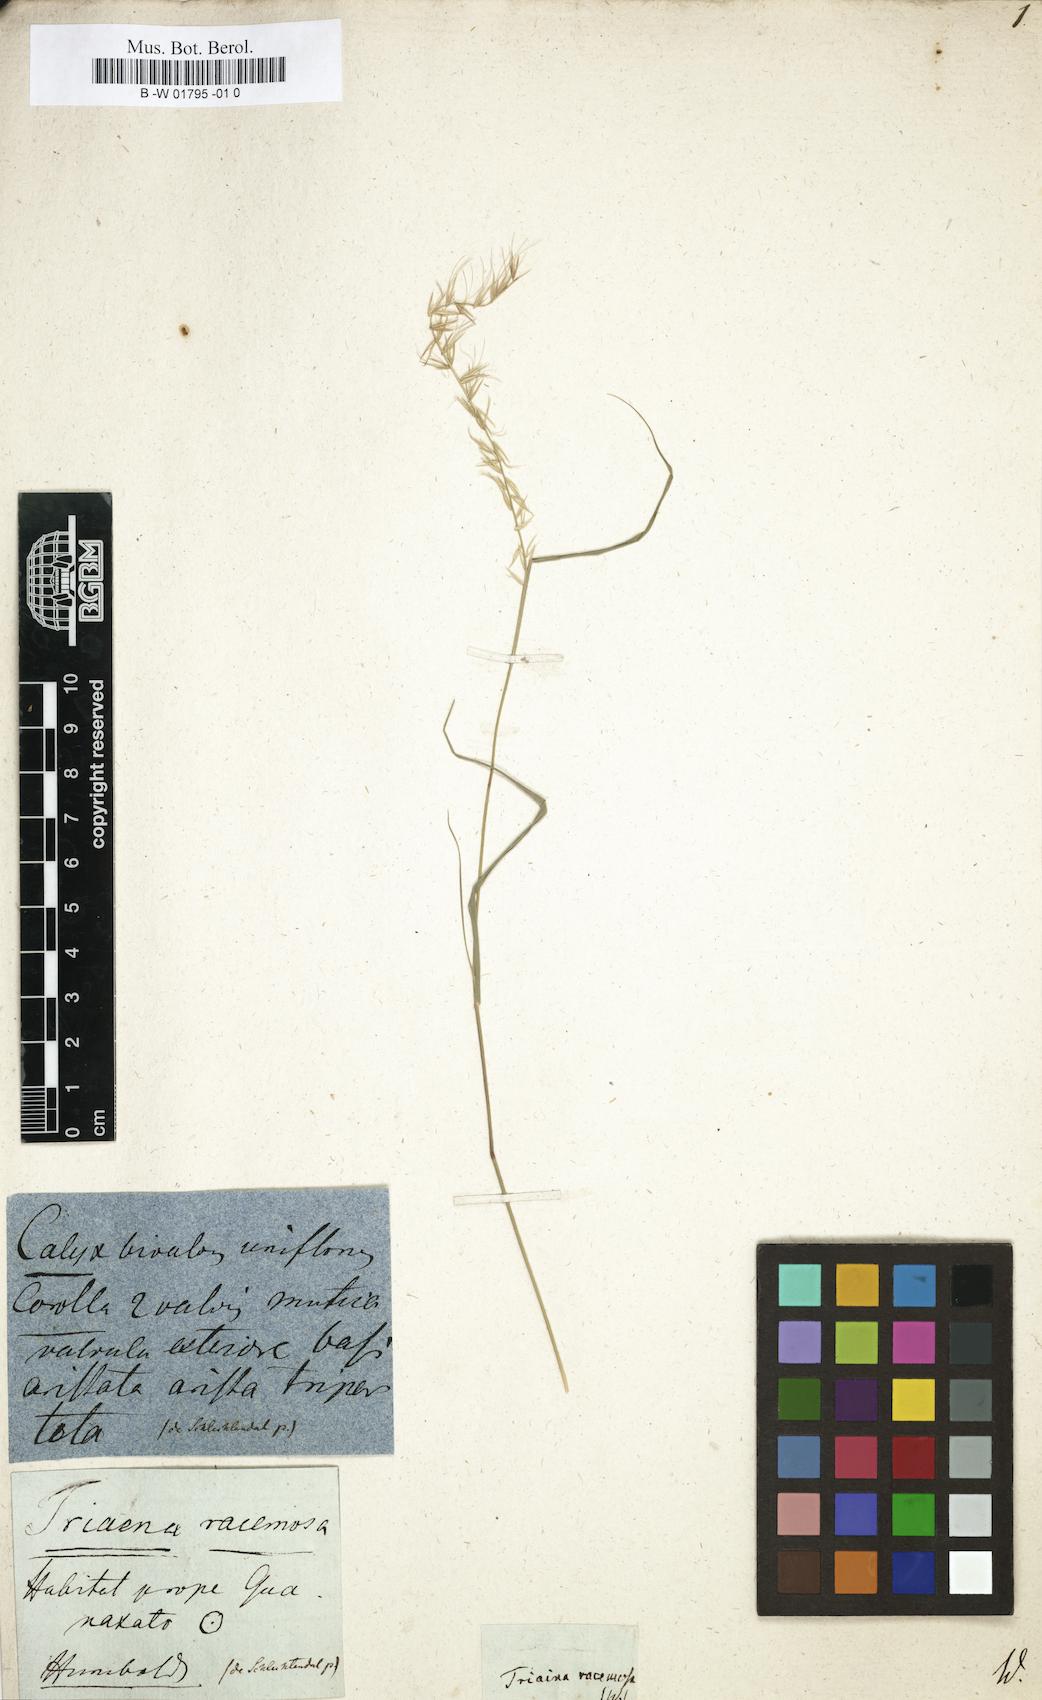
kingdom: Plantae
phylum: Tracheophyta
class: Liliopsida
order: Poales
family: Poaceae
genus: Bouteloua
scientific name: Bouteloua triaena
